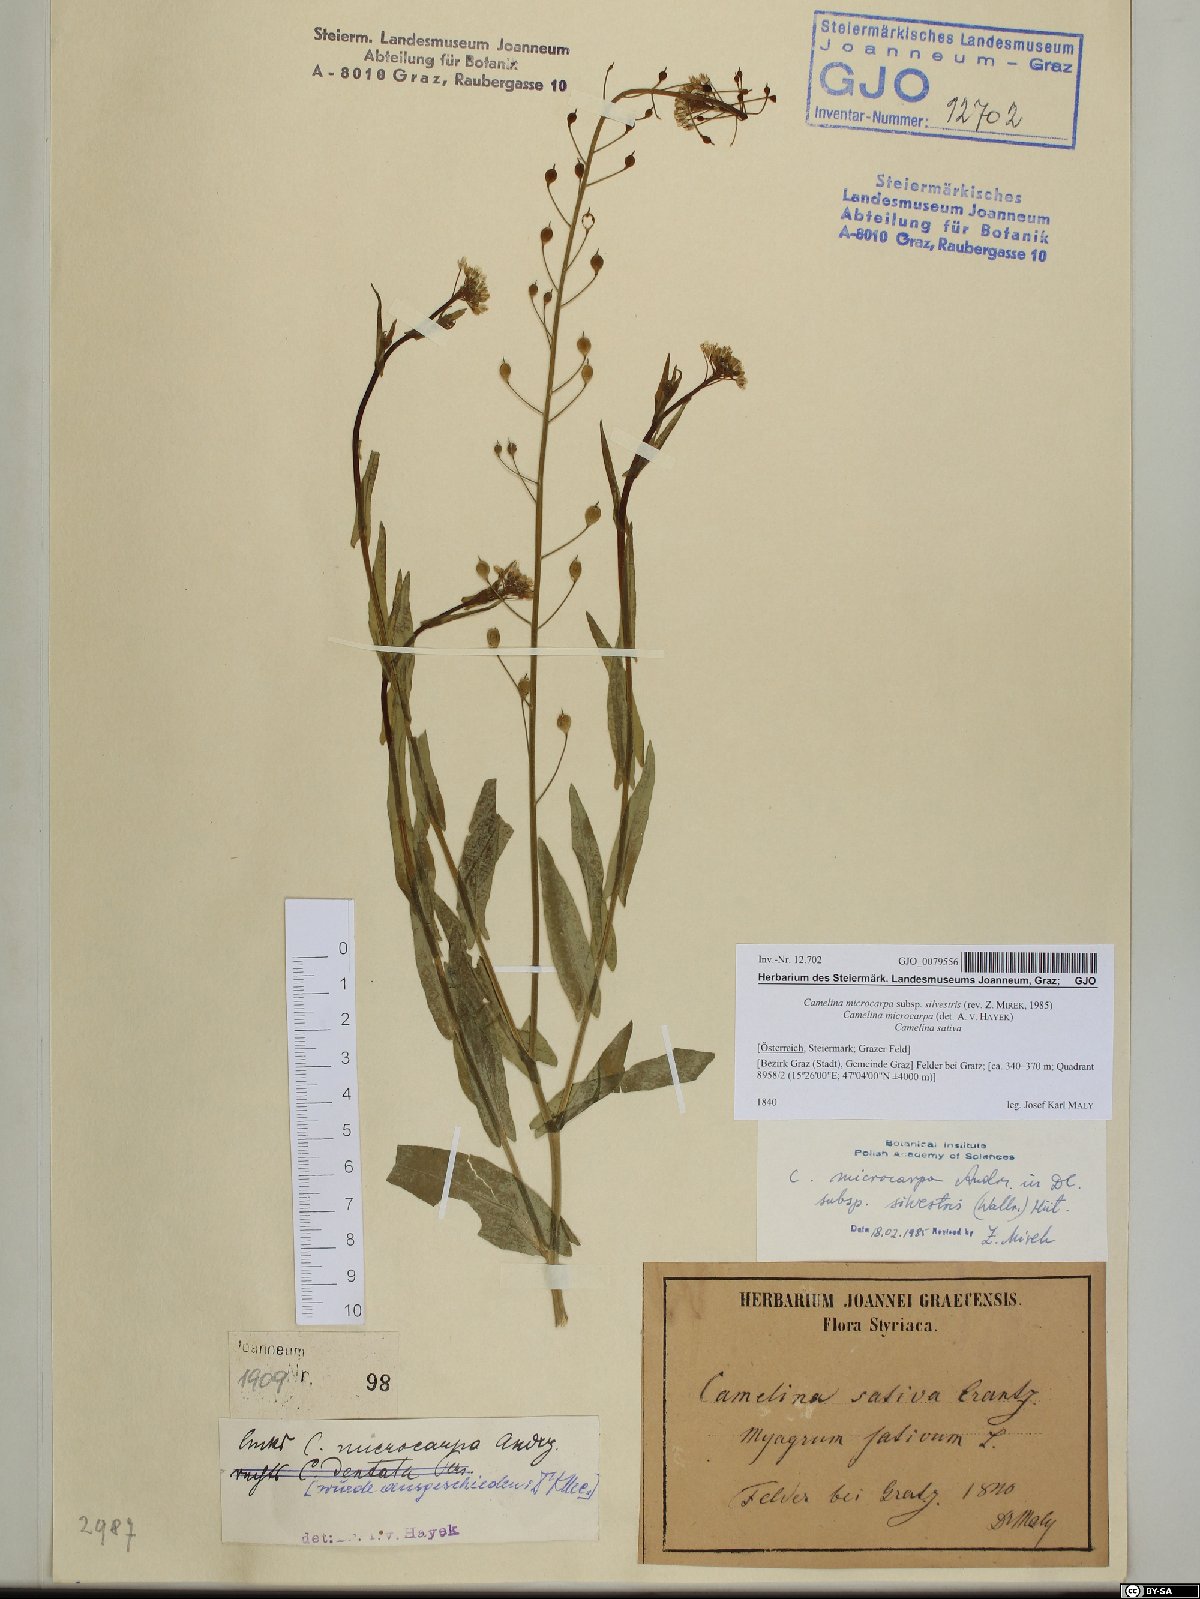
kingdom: Plantae
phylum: Tracheophyta
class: Magnoliopsida
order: Brassicales
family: Brassicaceae
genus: Camelina
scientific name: Camelina microcarpa
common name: Lesser gold-of-pleasure
